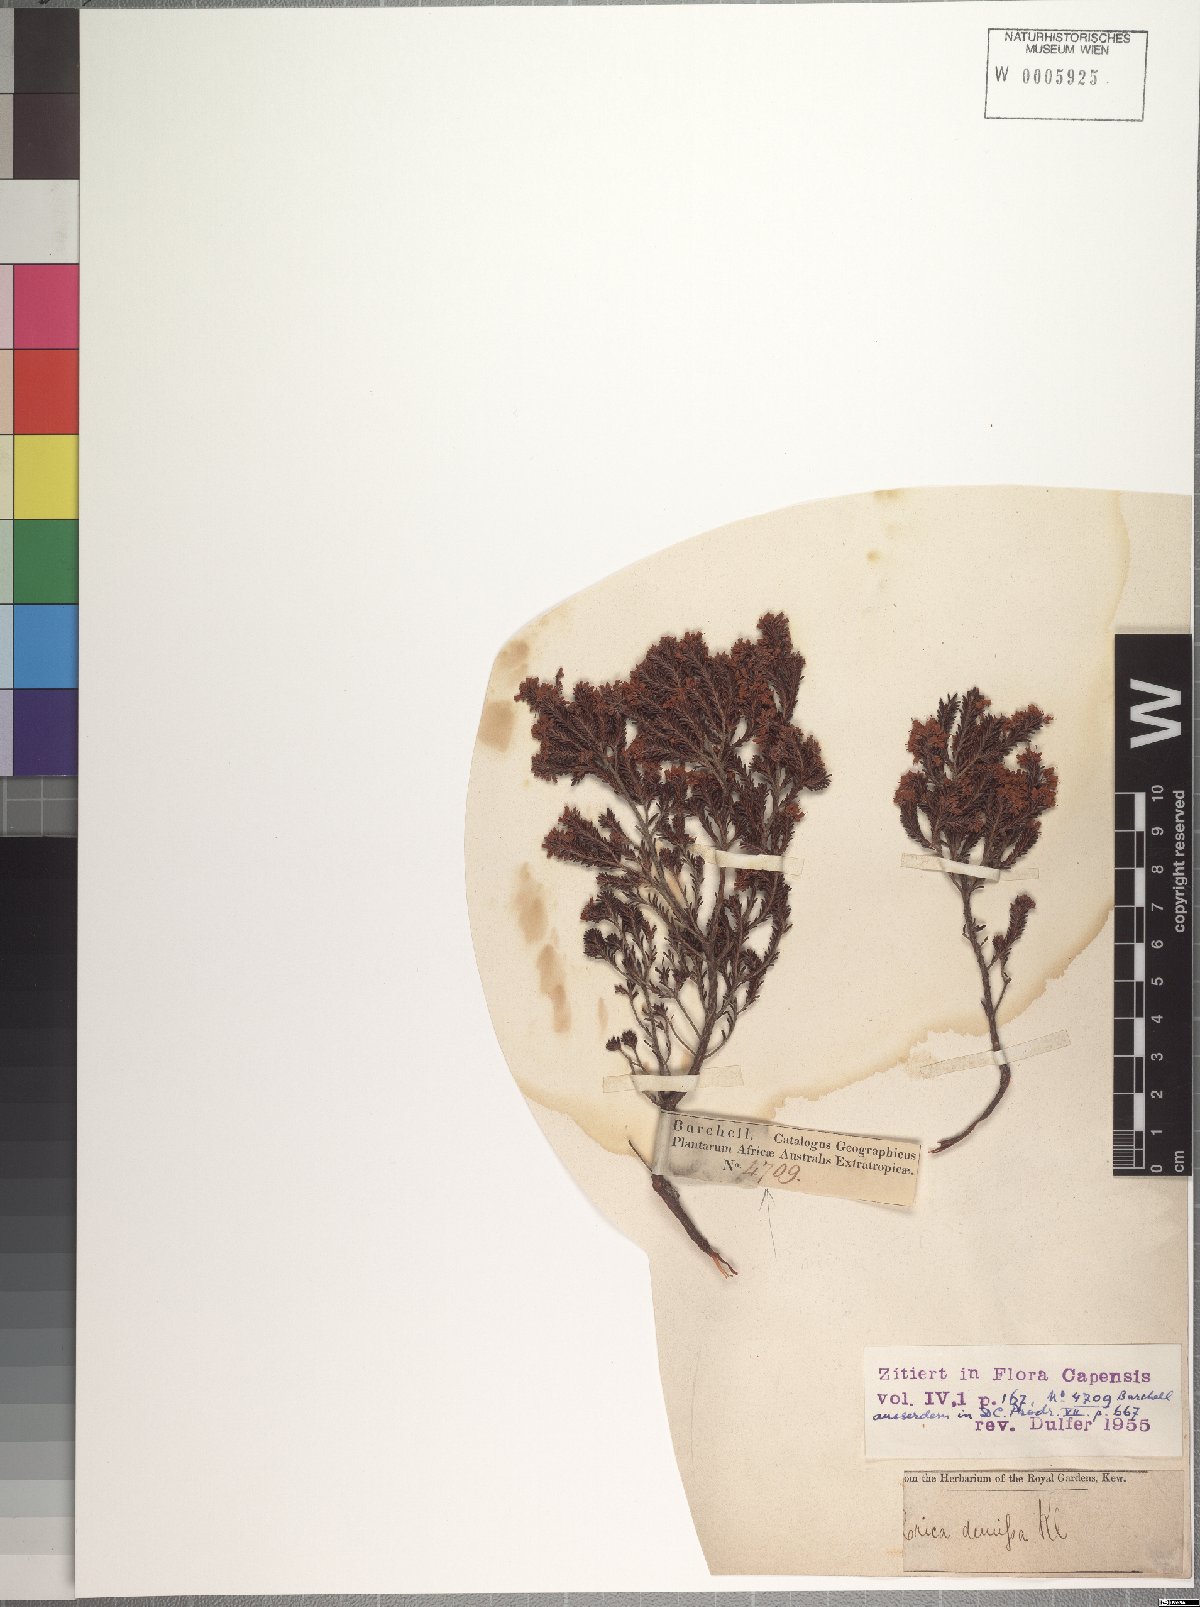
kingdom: Plantae
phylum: Tracheophyta
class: Magnoliopsida
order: Ericales
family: Ericaceae
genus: Erica
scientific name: Erica demissa
